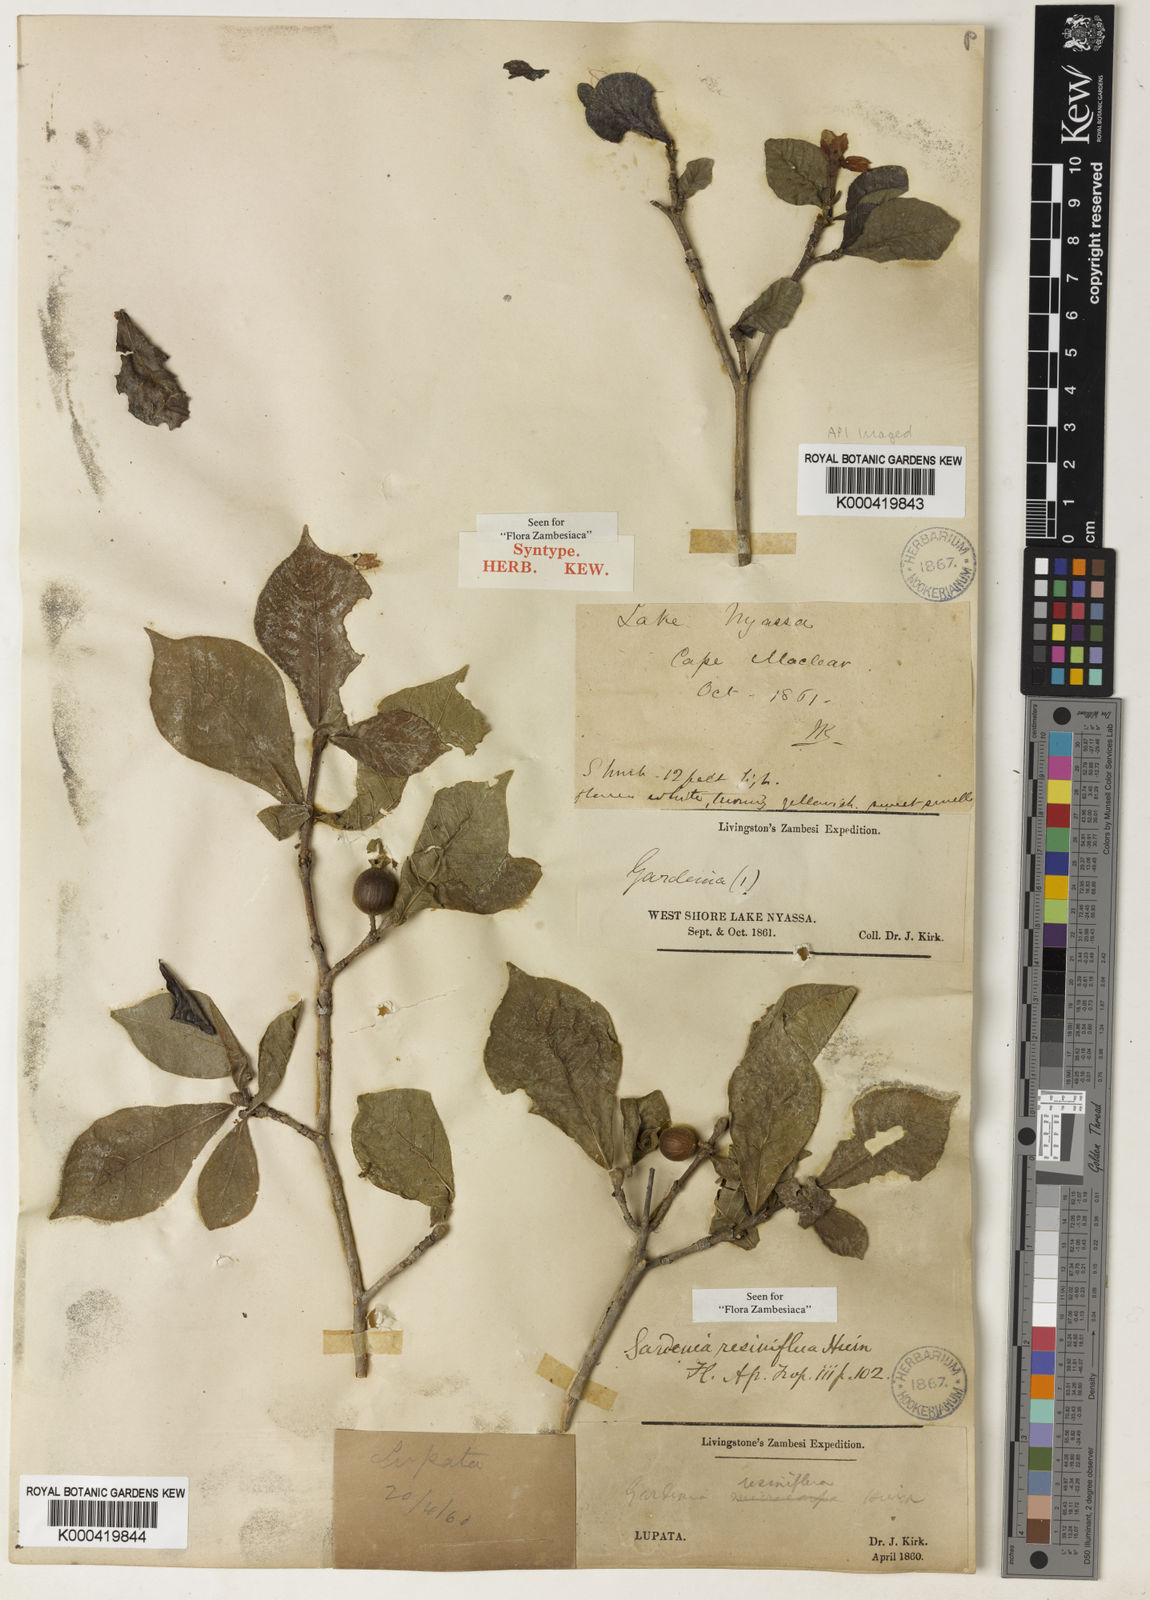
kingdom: Plantae
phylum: Tracheophyta
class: Magnoliopsida
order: Gentianales
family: Rubiaceae
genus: Gardenia
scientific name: Gardenia resiniflua
